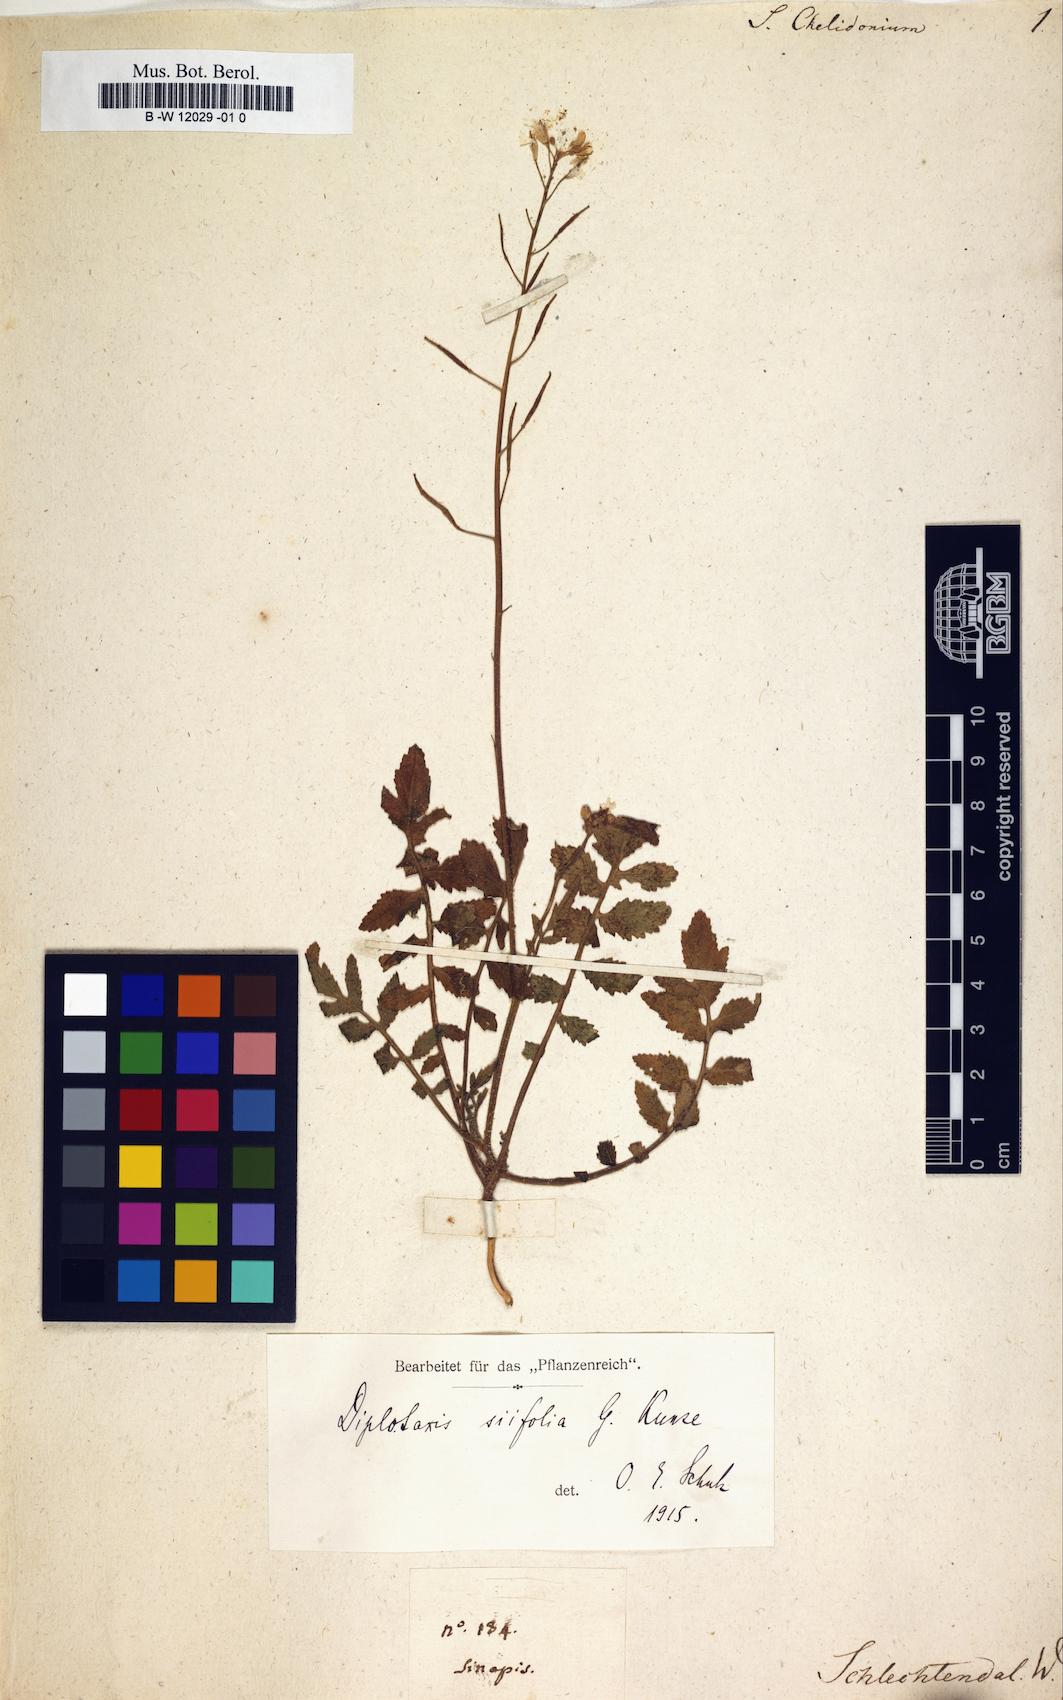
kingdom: Plantae
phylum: Tracheophyta
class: Magnoliopsida
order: Brassicales
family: Brassicaceae
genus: Sisymbrium
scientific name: Sisymbrium
